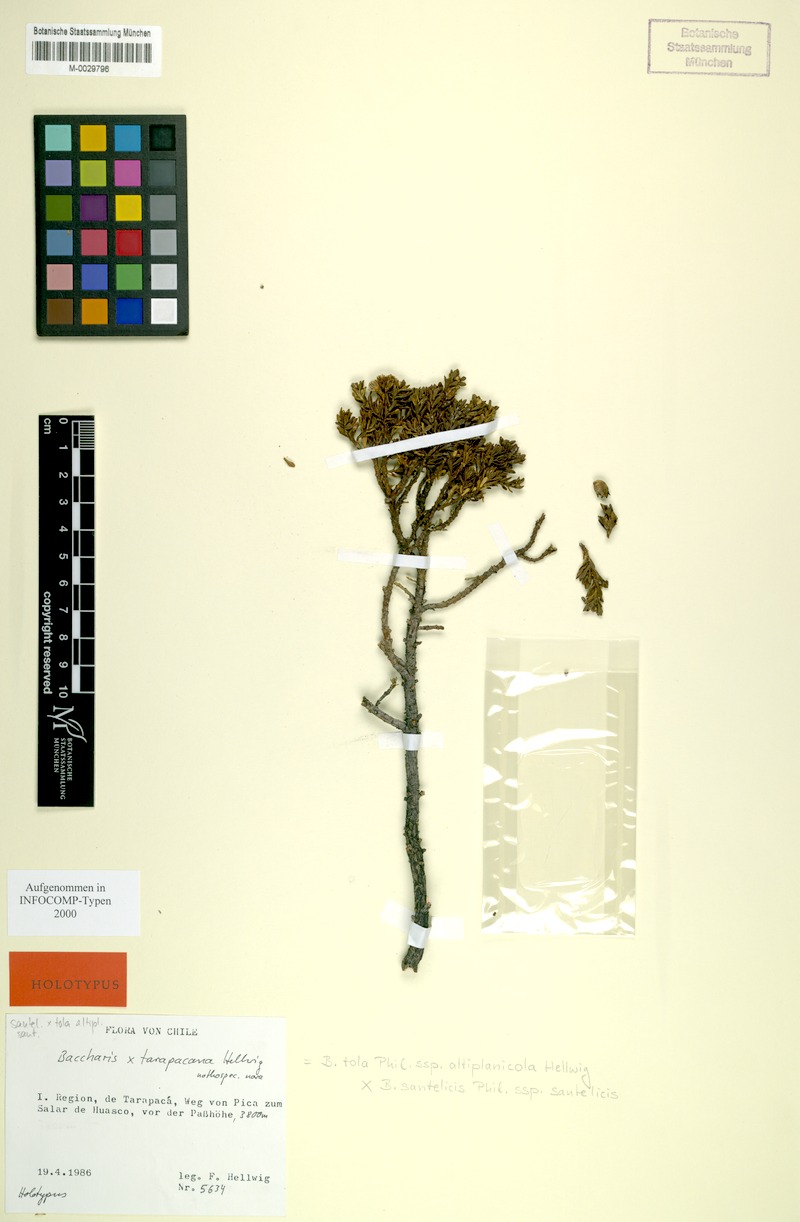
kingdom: Plantae
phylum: Tracheophyta
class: Magnoliopsida
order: Asterales
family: Asteraceae
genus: Baccharis
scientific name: Baccharis tola
